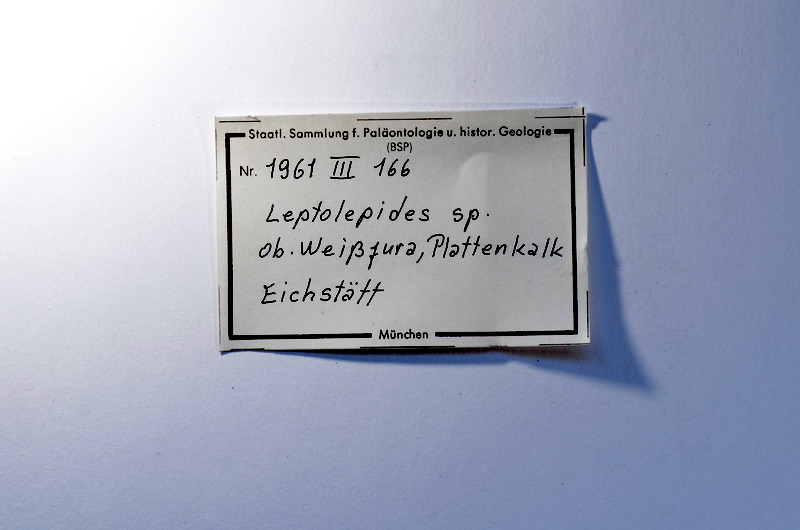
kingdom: Animalia
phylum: Chordata
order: Salmoniformes
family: Orthogonikleithridae
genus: Leptolepides
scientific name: Leptolepides
